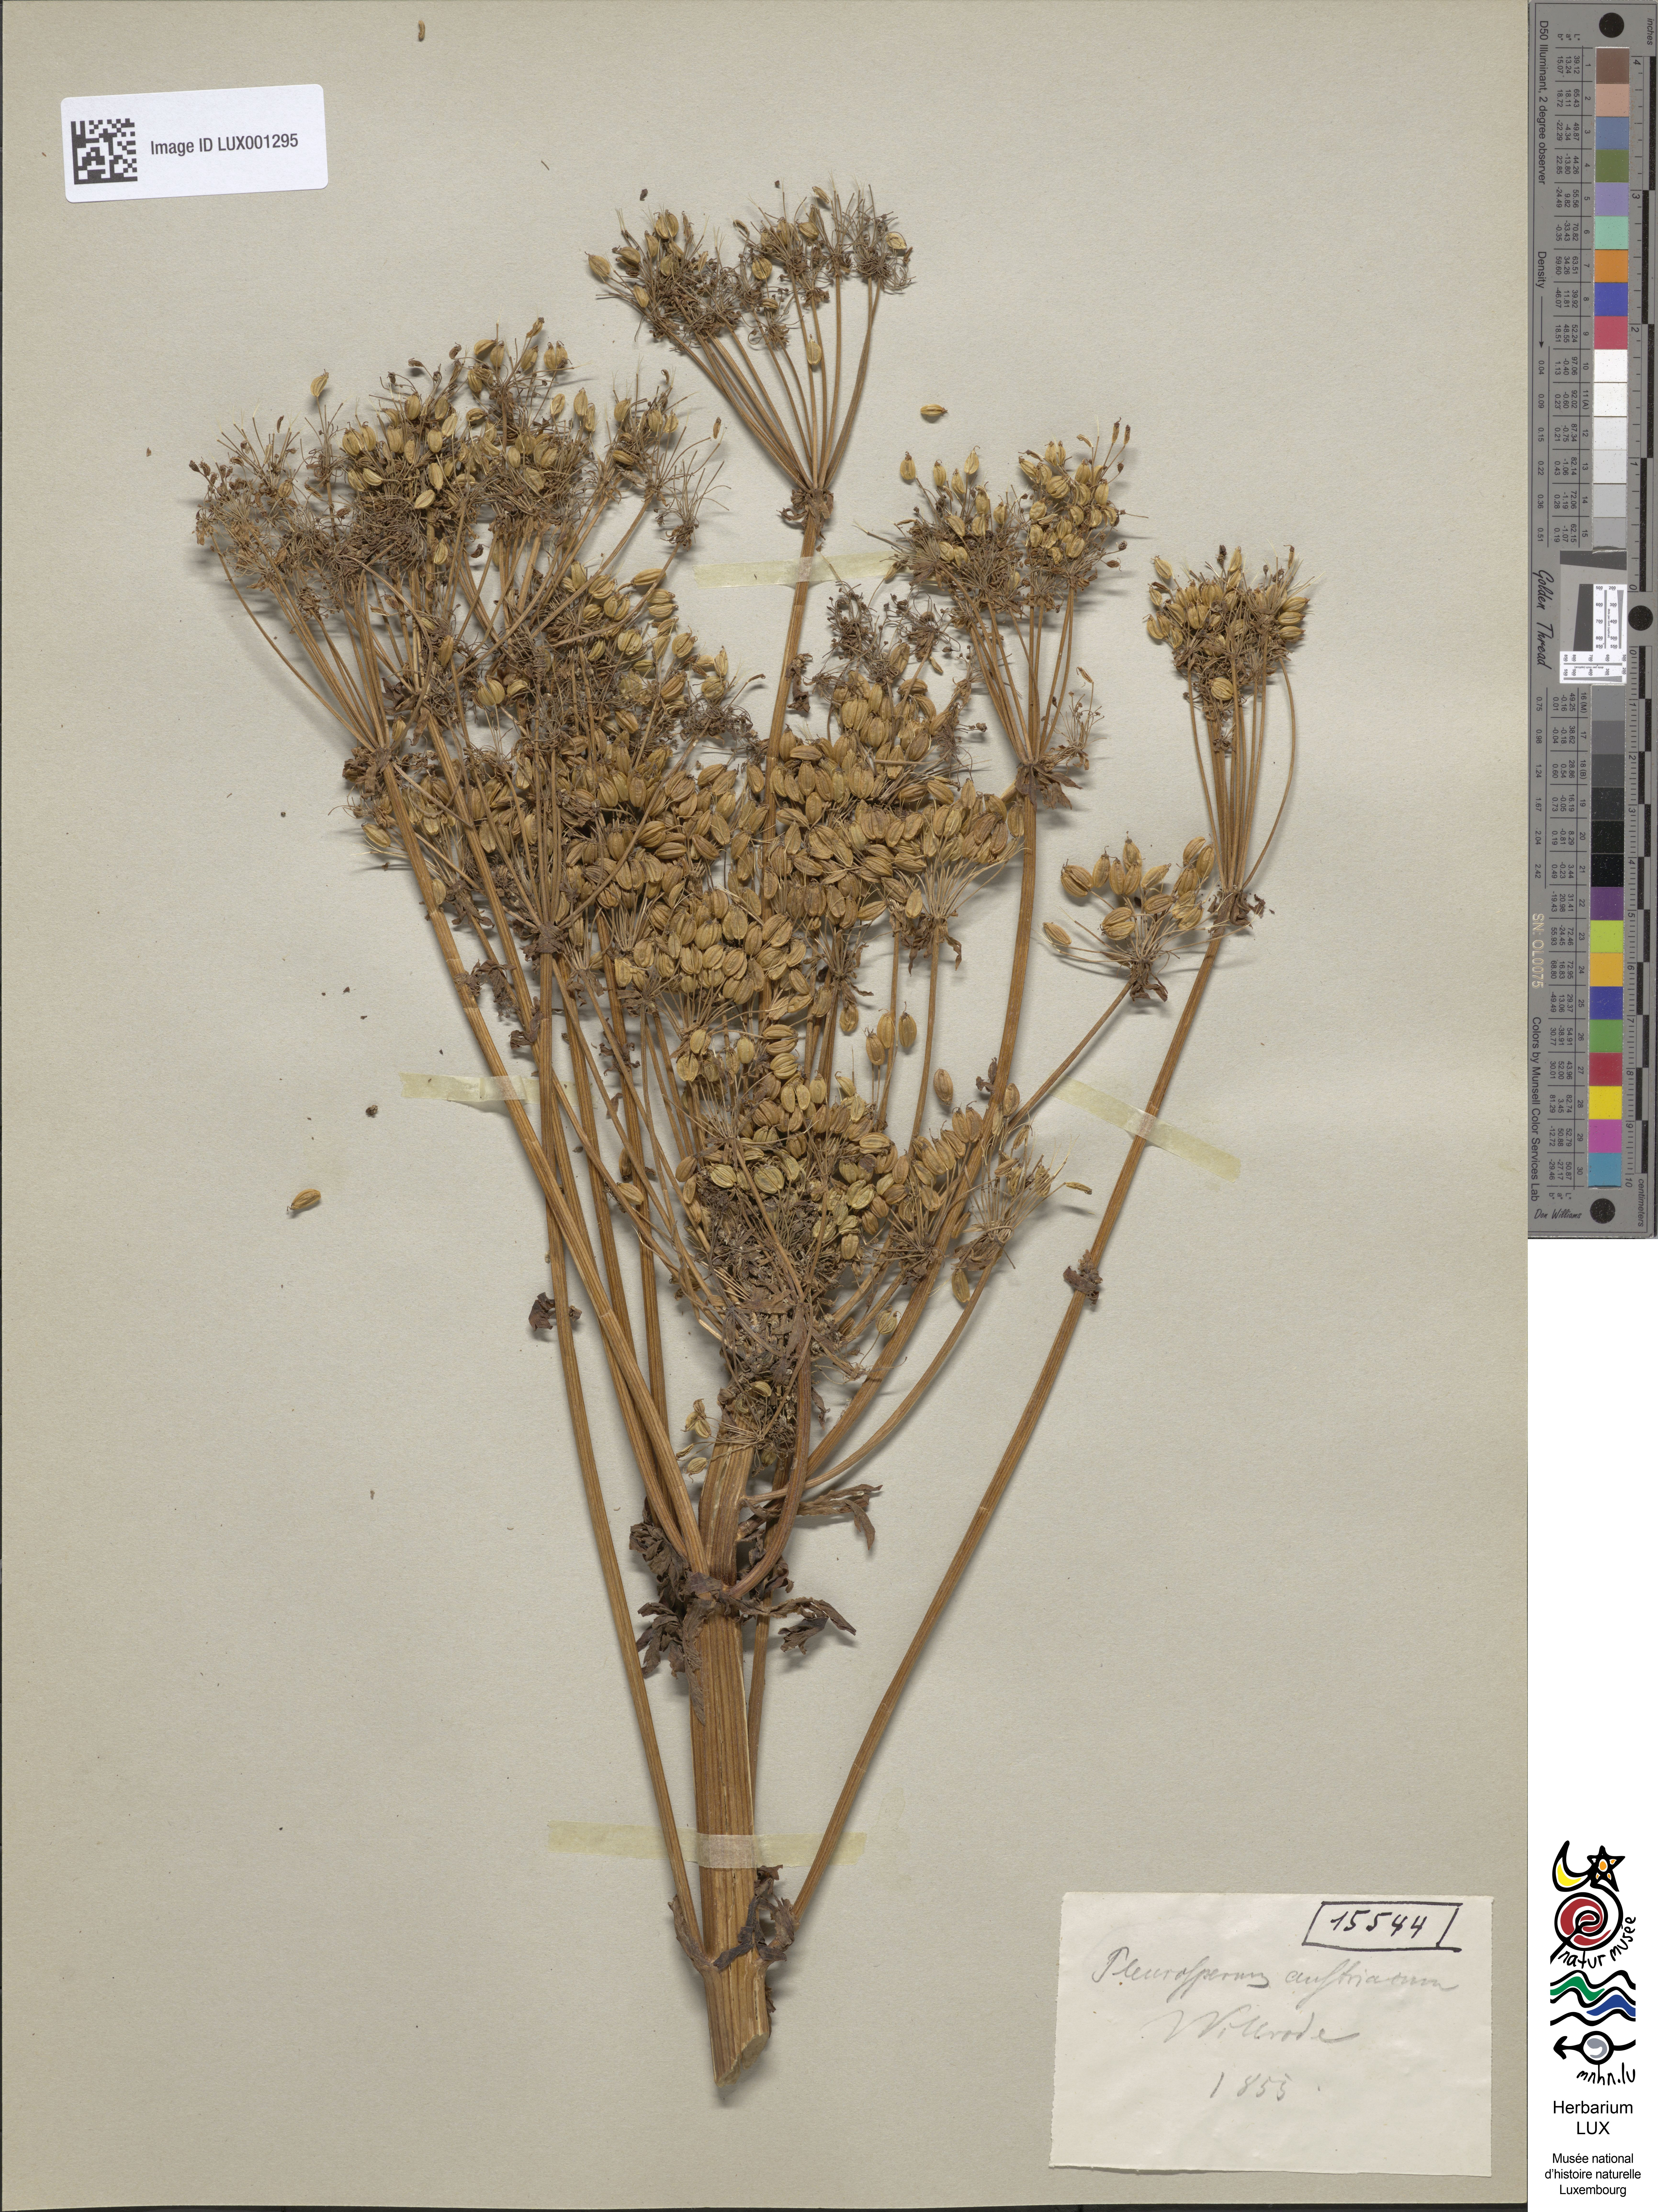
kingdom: Plantae
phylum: Tracheophyta
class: Magnoliopsida
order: Apiales
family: Apiaceae
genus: Pleurospermum
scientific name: Pleurospermum austriacum
